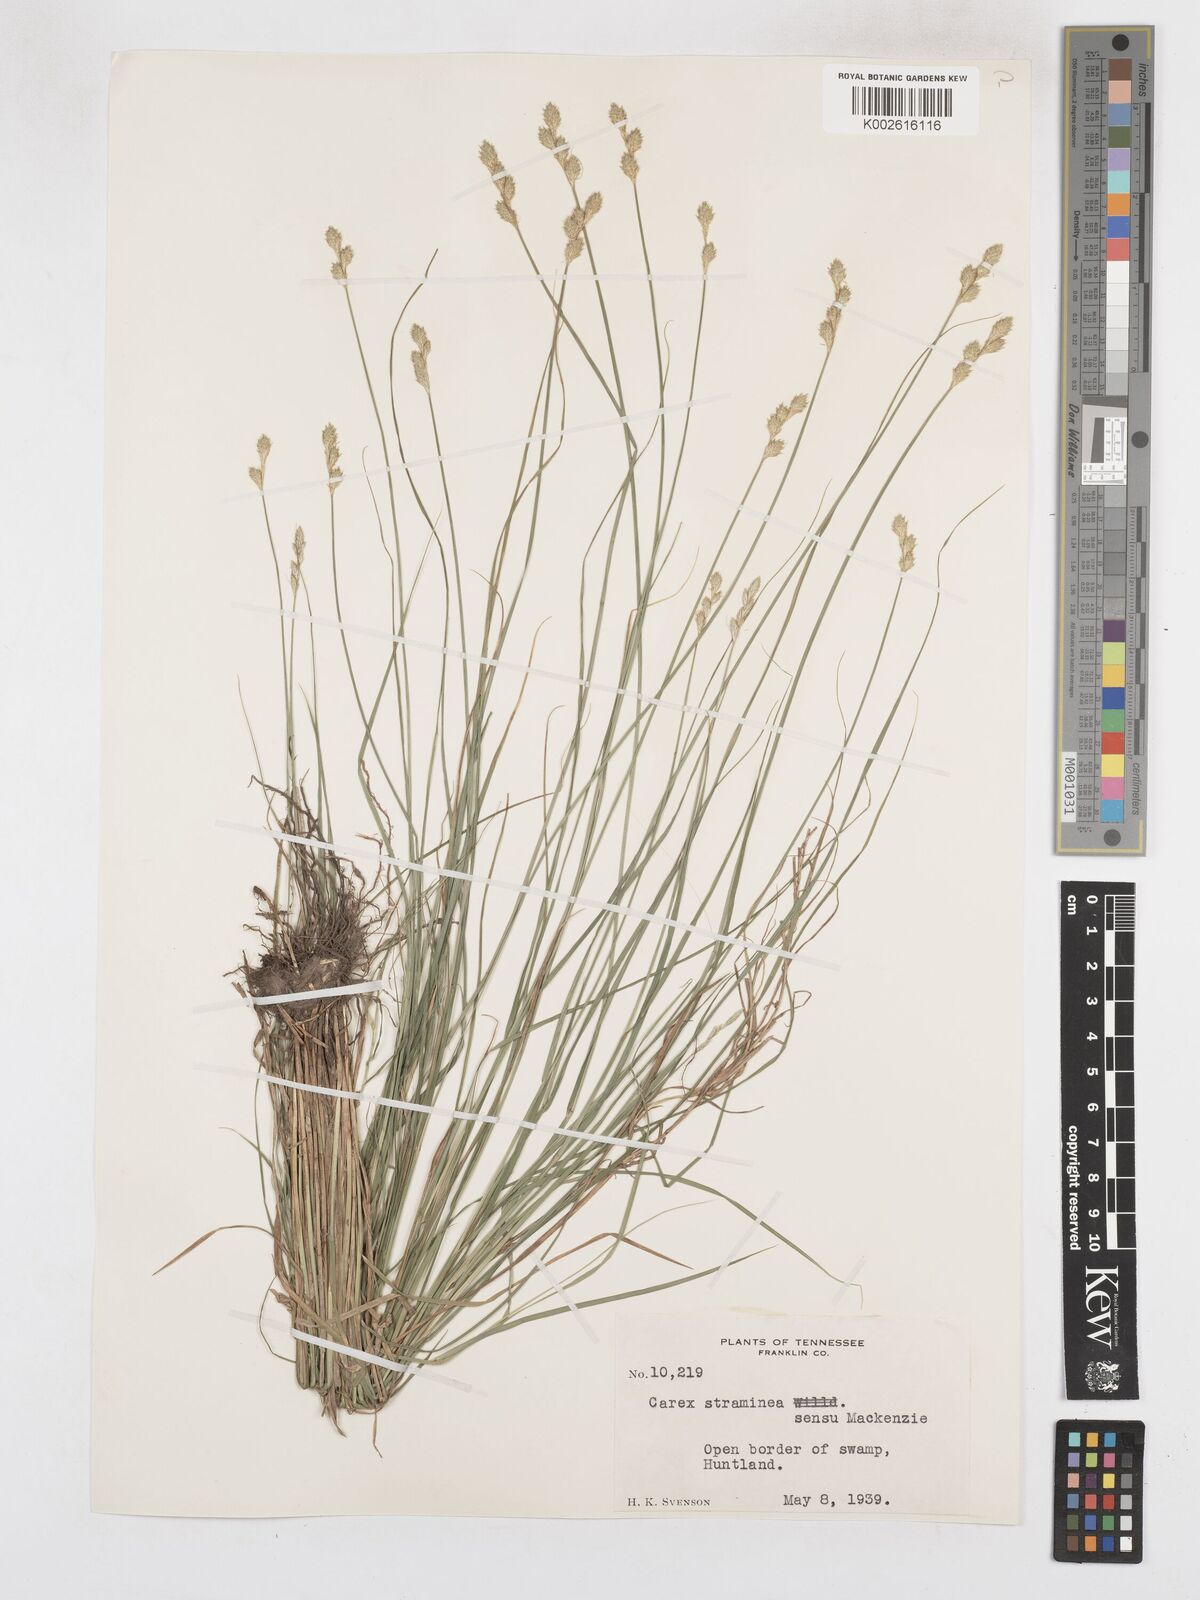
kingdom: Plantae
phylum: Tracheophyta
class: Liliopsida
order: Poales
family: Cyperaceae
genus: Carex
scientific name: Carex brevior
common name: Brevior sedge
